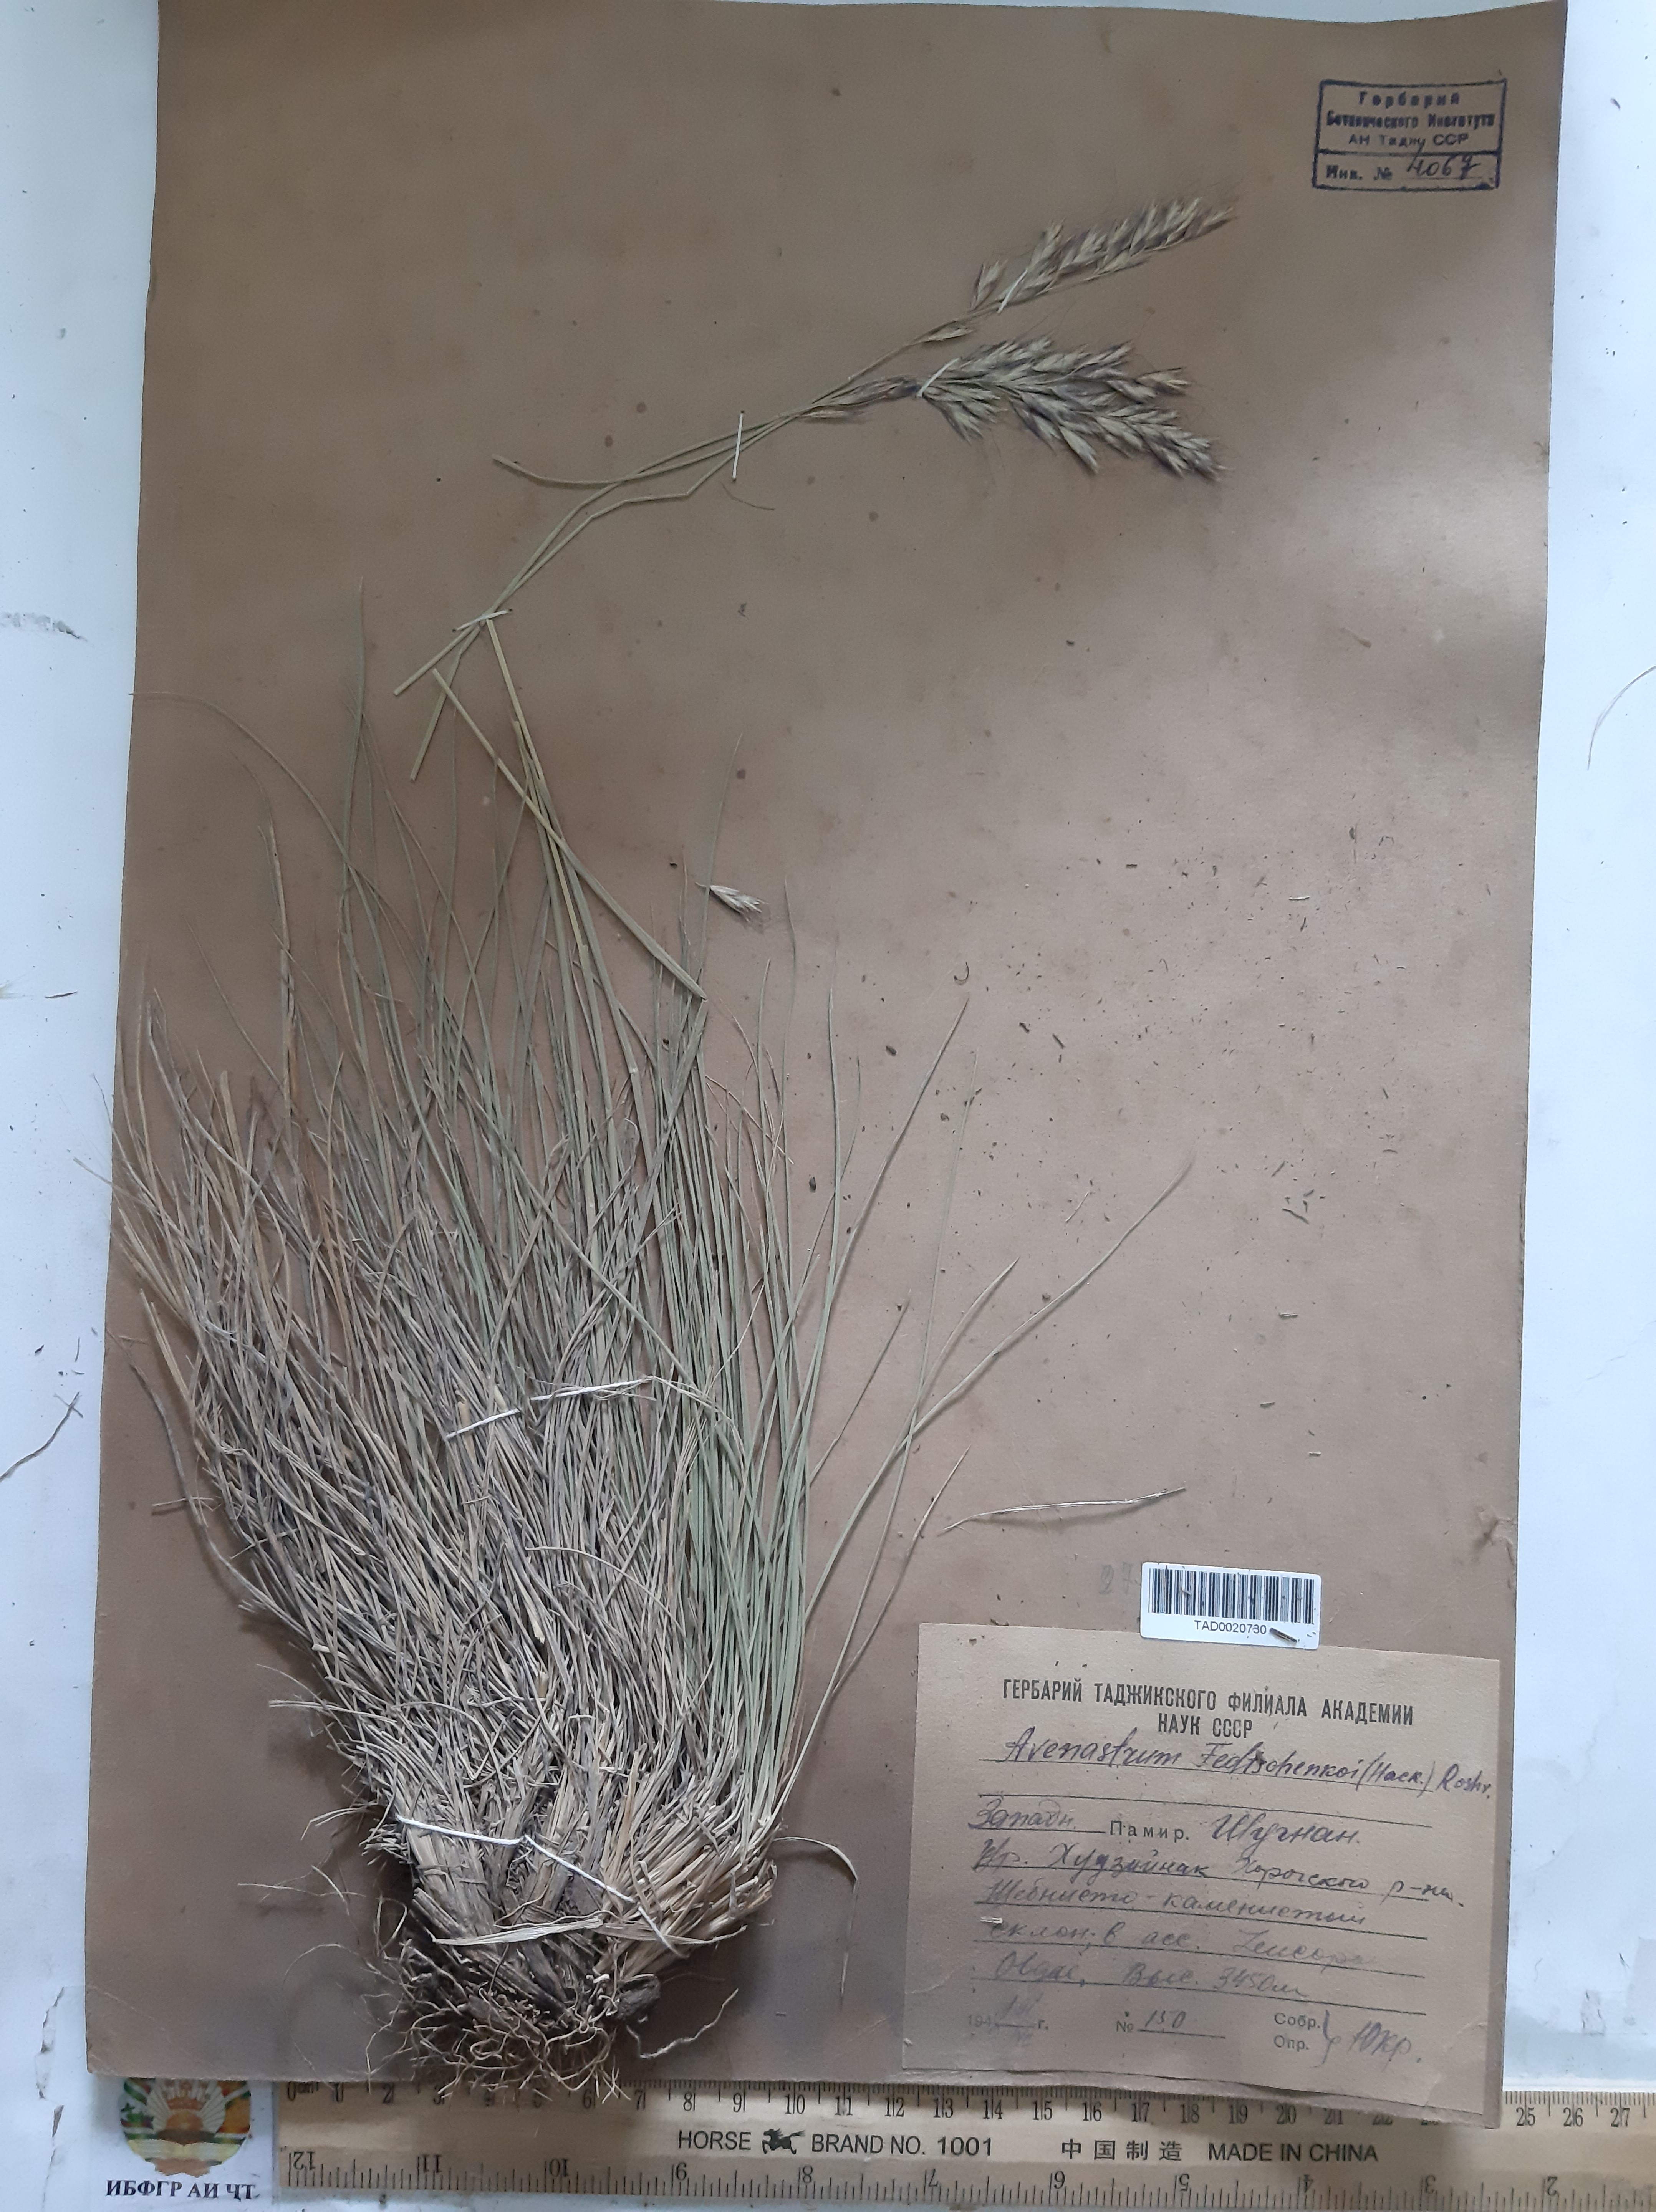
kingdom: Plantae
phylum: Tracheophyta
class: Magnoliopsida
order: Saxifragales
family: Paeoniaceae
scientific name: Paeoniaceae
